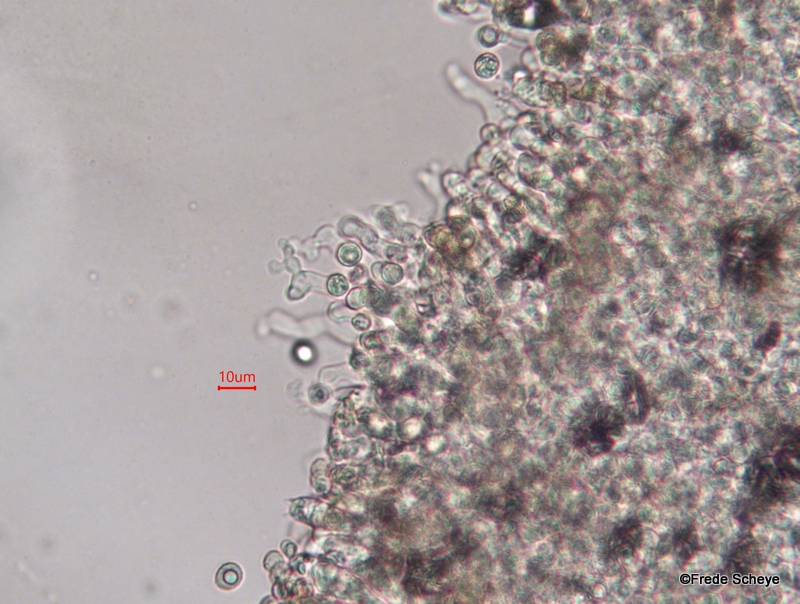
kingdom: Fungi
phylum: Basidiomycota
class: Agaricomycetes
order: Agaricales
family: Crepidotaceae
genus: Crepidotus
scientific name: Crepidotus cesatii
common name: almindelig muslingesvamp
